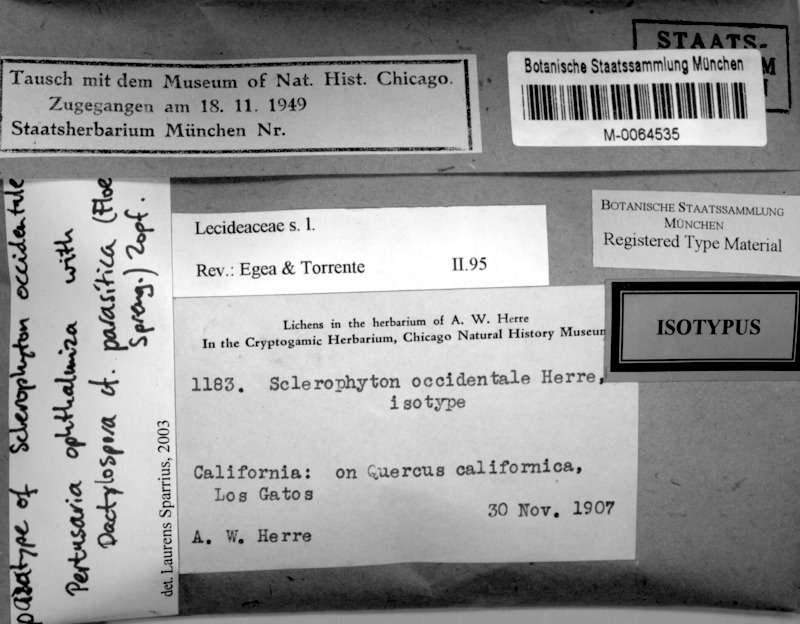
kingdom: Fungi
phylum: Ascomycota
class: Arthoniomycetes
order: Arthoniales
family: Opegraphaceae
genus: Sclerophyton
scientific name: Sclerophyton occidentale
